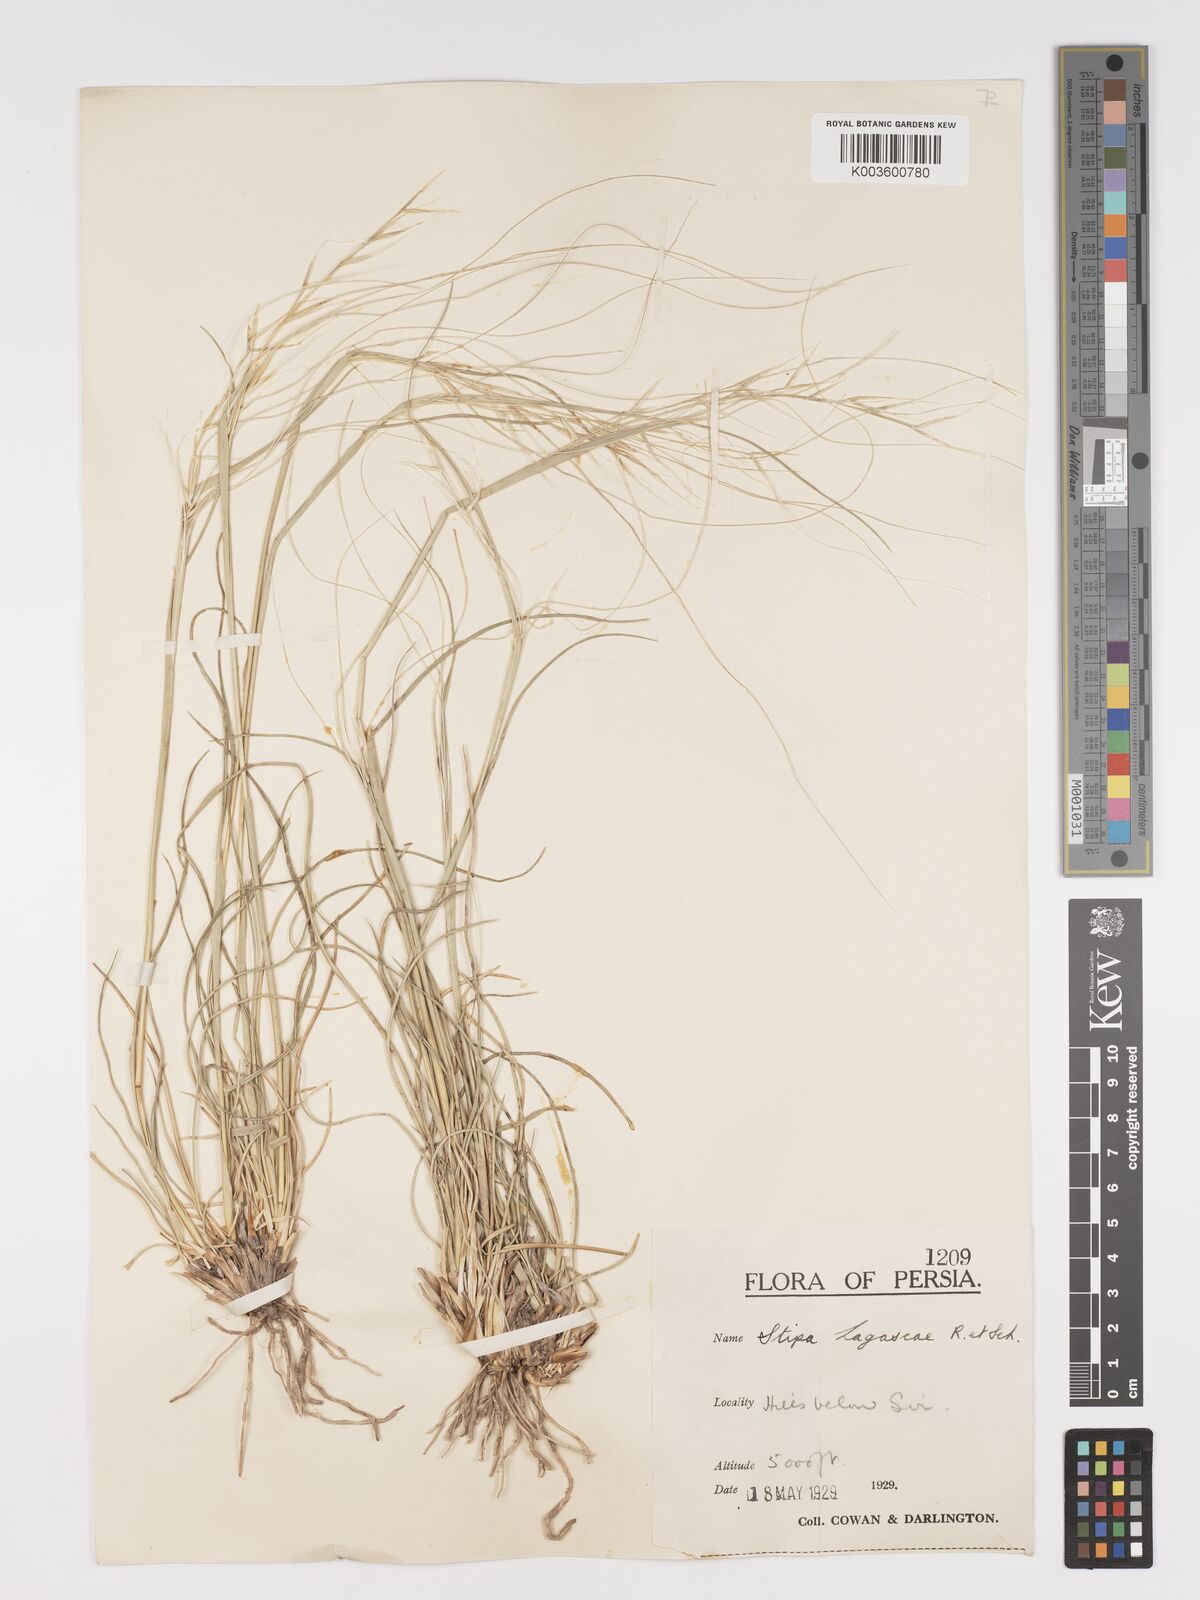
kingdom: Plantae
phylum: Tracheophyta
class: Liliopsida
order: Poales
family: Poaceae
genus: Stipa
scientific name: Stipa lagascae
